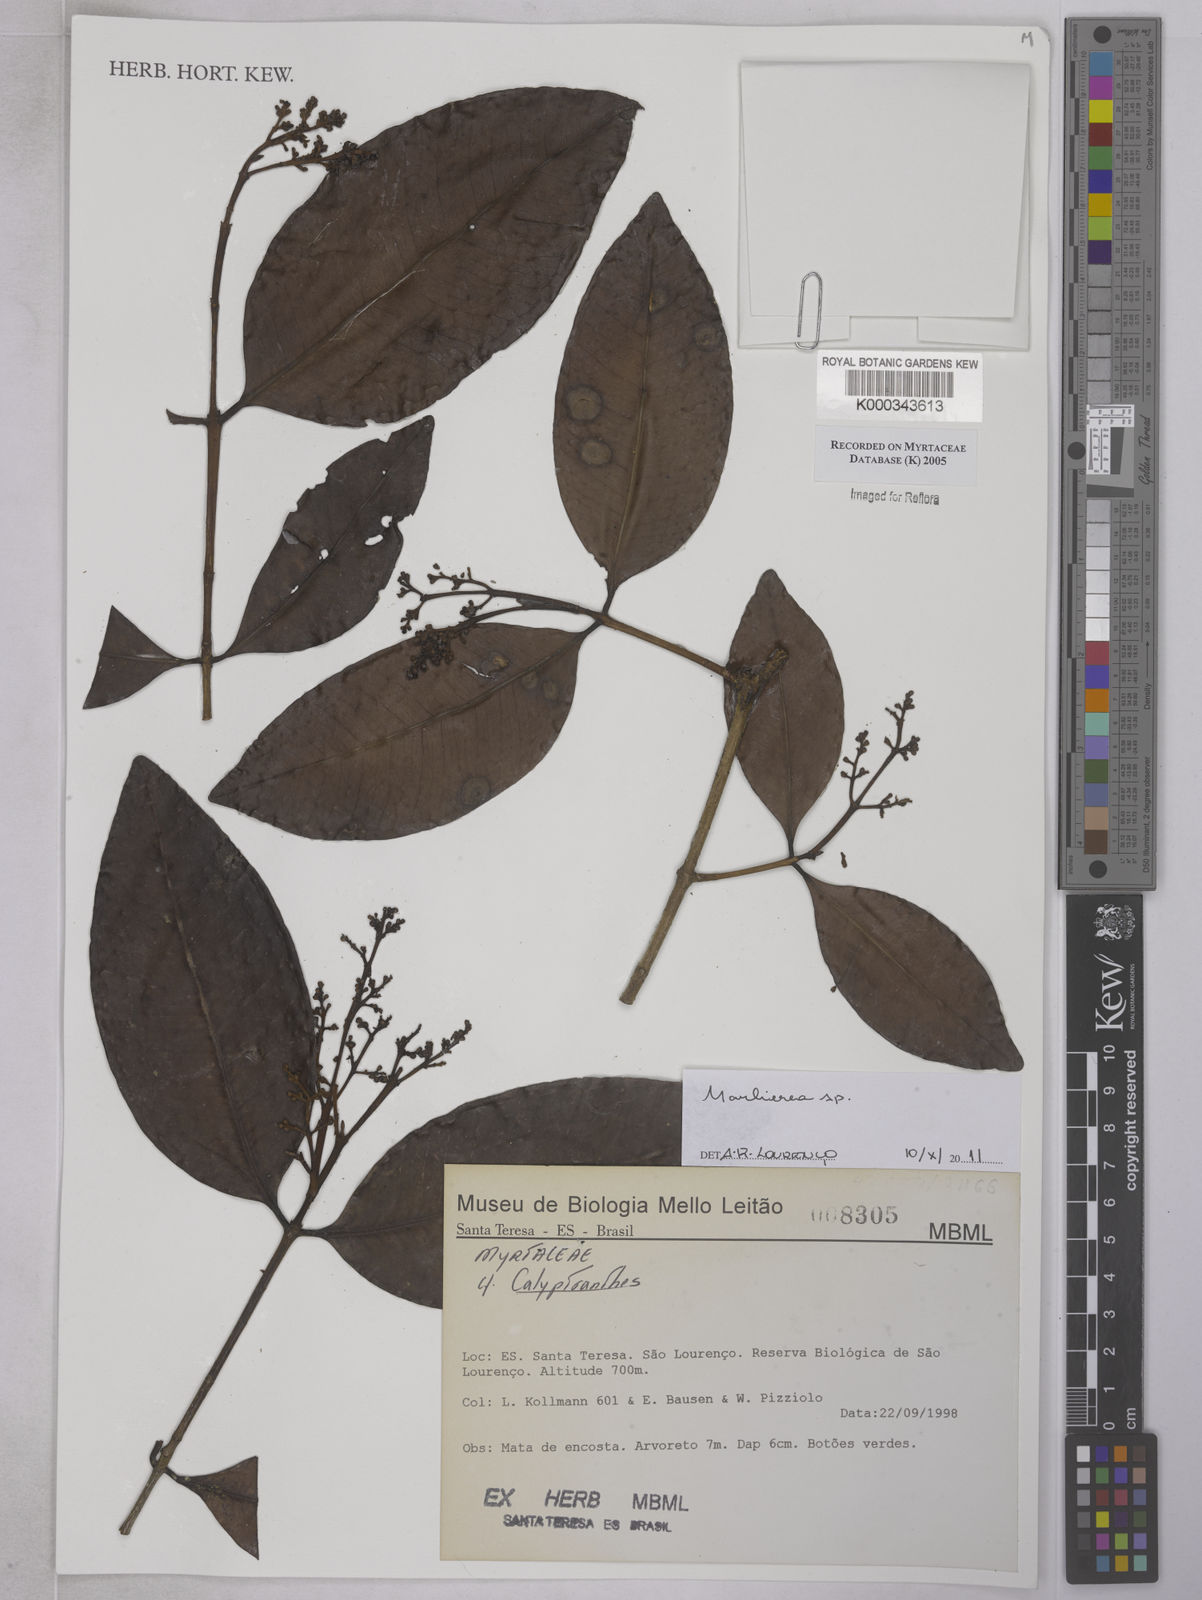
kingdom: Plantae
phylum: Tracheophyta
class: Magnoliopsida
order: Myrtales
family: Myrtaceae
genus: Calyptranthes
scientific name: Calyptranthes
